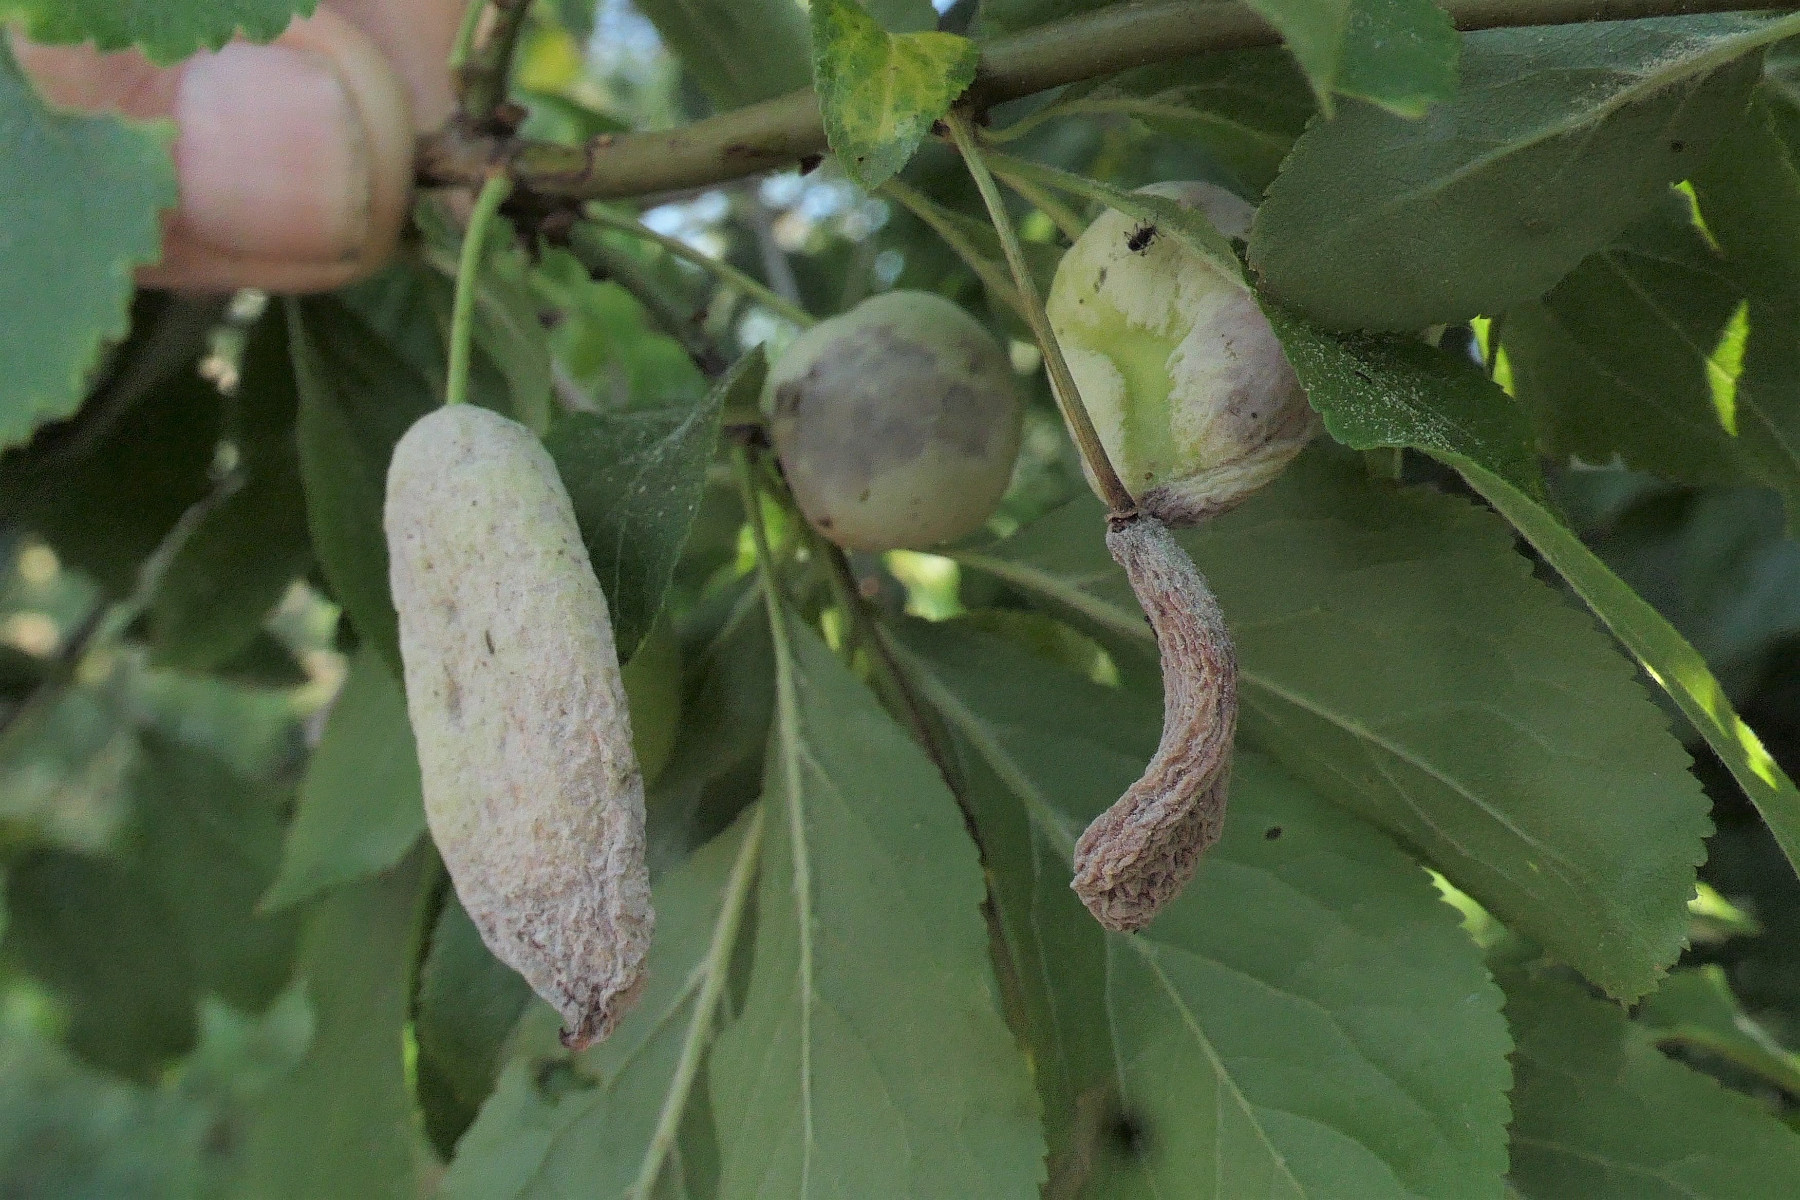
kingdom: Fungi
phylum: Ascomycota
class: Taphrinomycetes
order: Taphrinales
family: Taphrinaceae
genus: Taphrina
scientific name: Taphrina pruni
